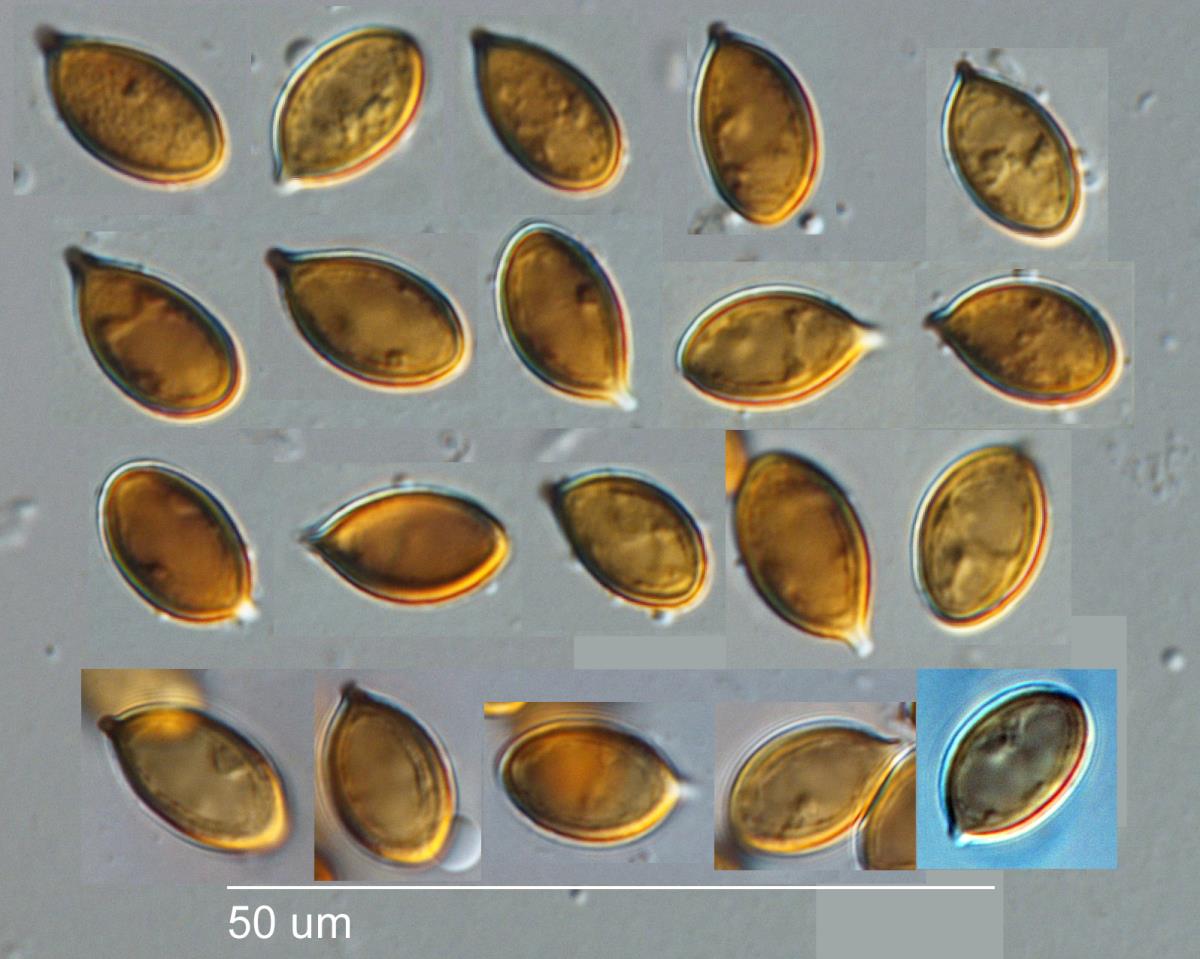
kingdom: Fungi
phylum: Basidiomycota
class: Agaricomycetes
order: Agaricales
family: Cortinariaceae
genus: Cortinarius
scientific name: Cortinarius purpureocapitatus
